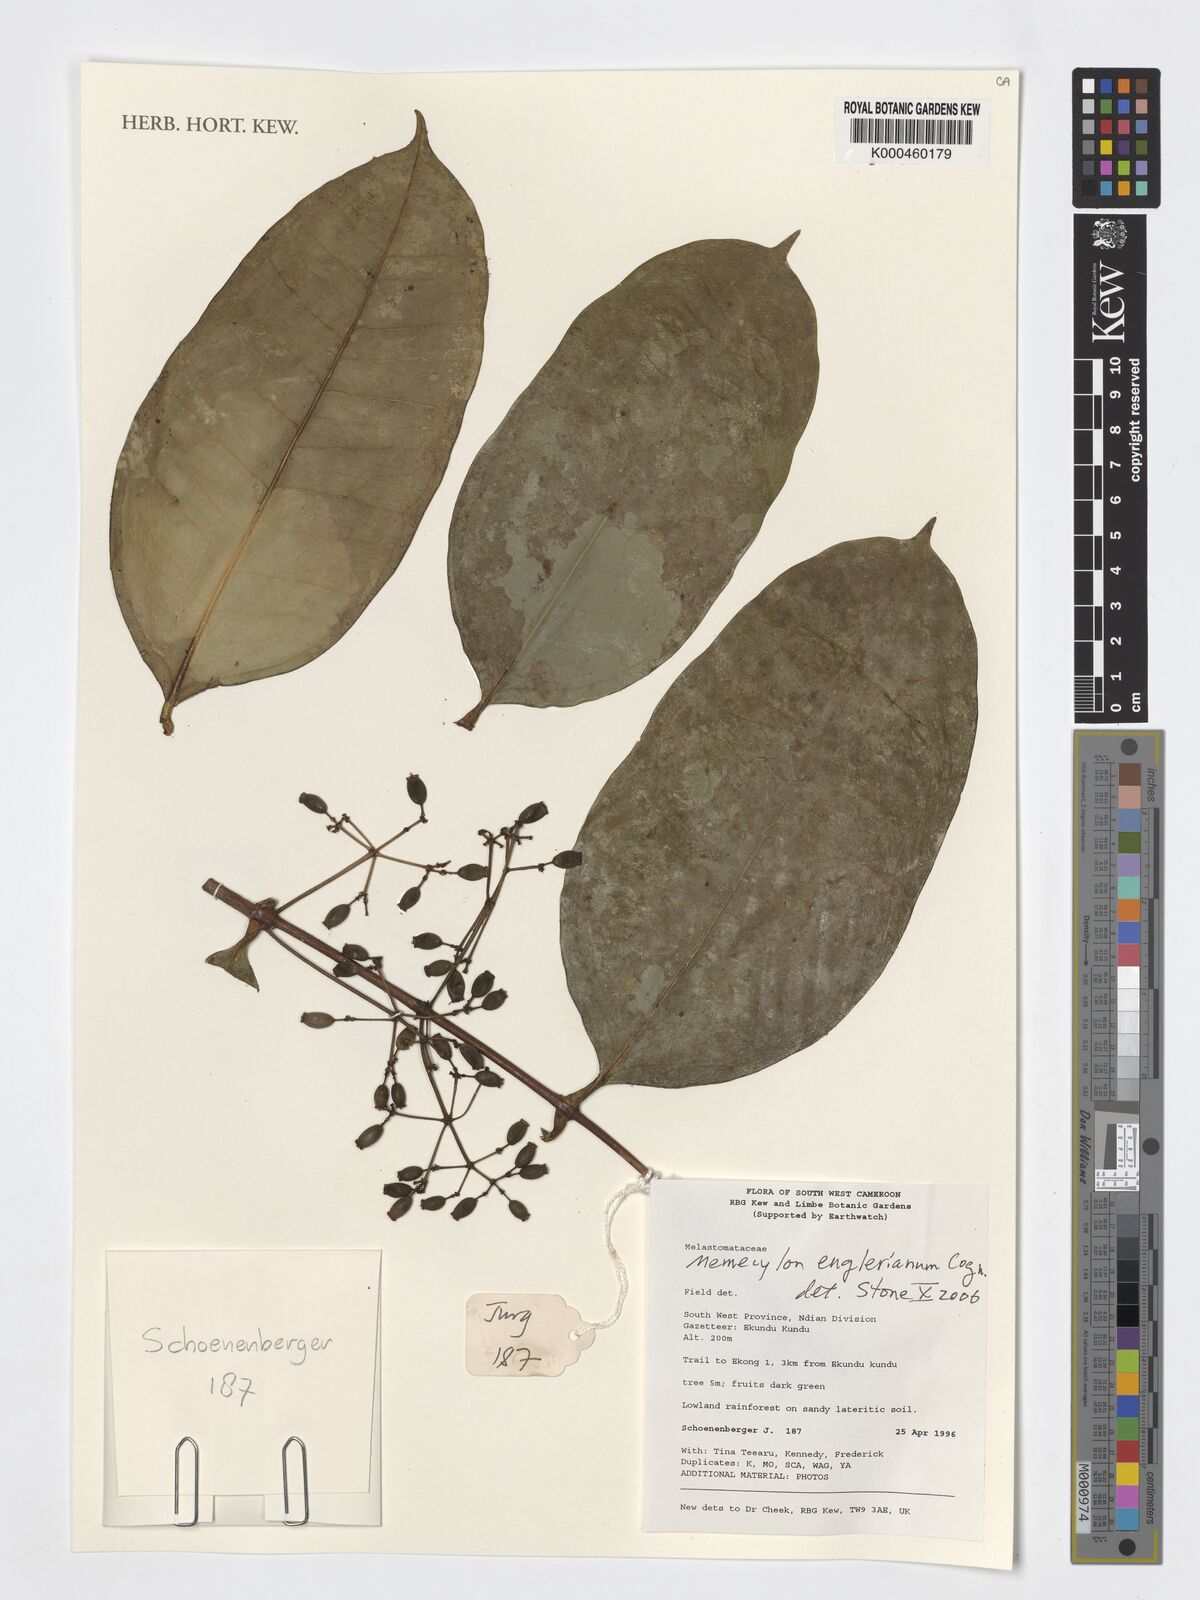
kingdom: Plantae
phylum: Tracheophyta
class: Magnoliopsida
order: Myrtales
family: Melastomataceae
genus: Memecylon
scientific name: Memecylon englerianum
